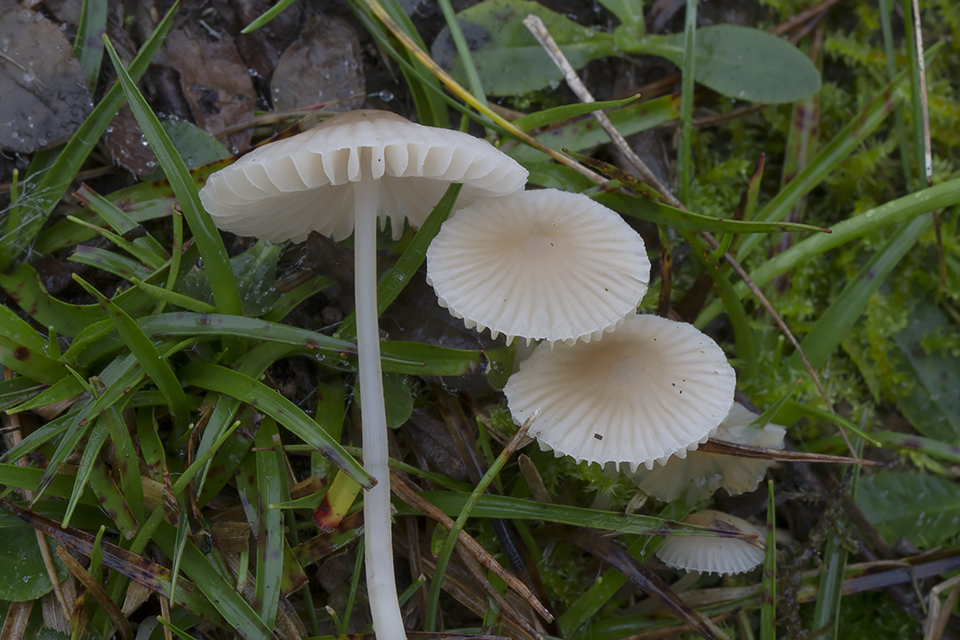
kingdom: Fungi
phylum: Basidiomycota
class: Agaricomycetes
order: Agaricales
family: Mycenaceae
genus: Atheniella
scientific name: Atheniella flavoalba
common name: gulhvid huesvamp
